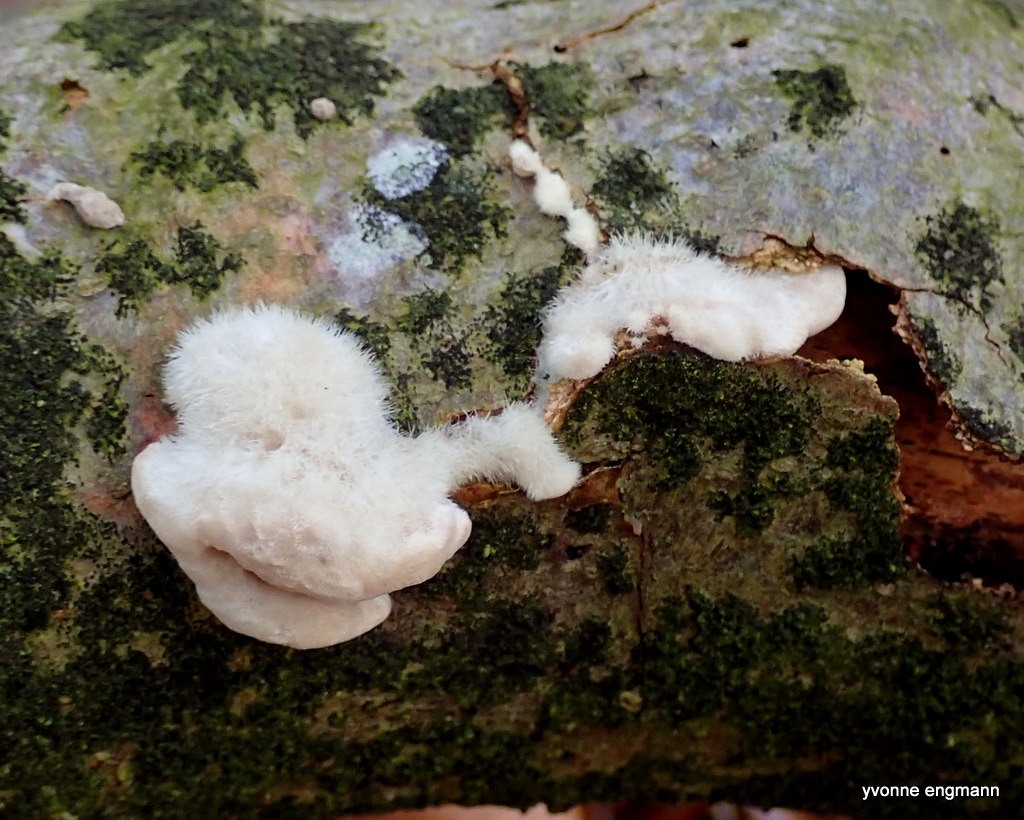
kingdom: Fungi
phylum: Basidiomycota
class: Agaricomycetes
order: Polyporales
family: Polyporaceae
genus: Trametes
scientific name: Trametes hirsuta
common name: håret læderporesvamp
